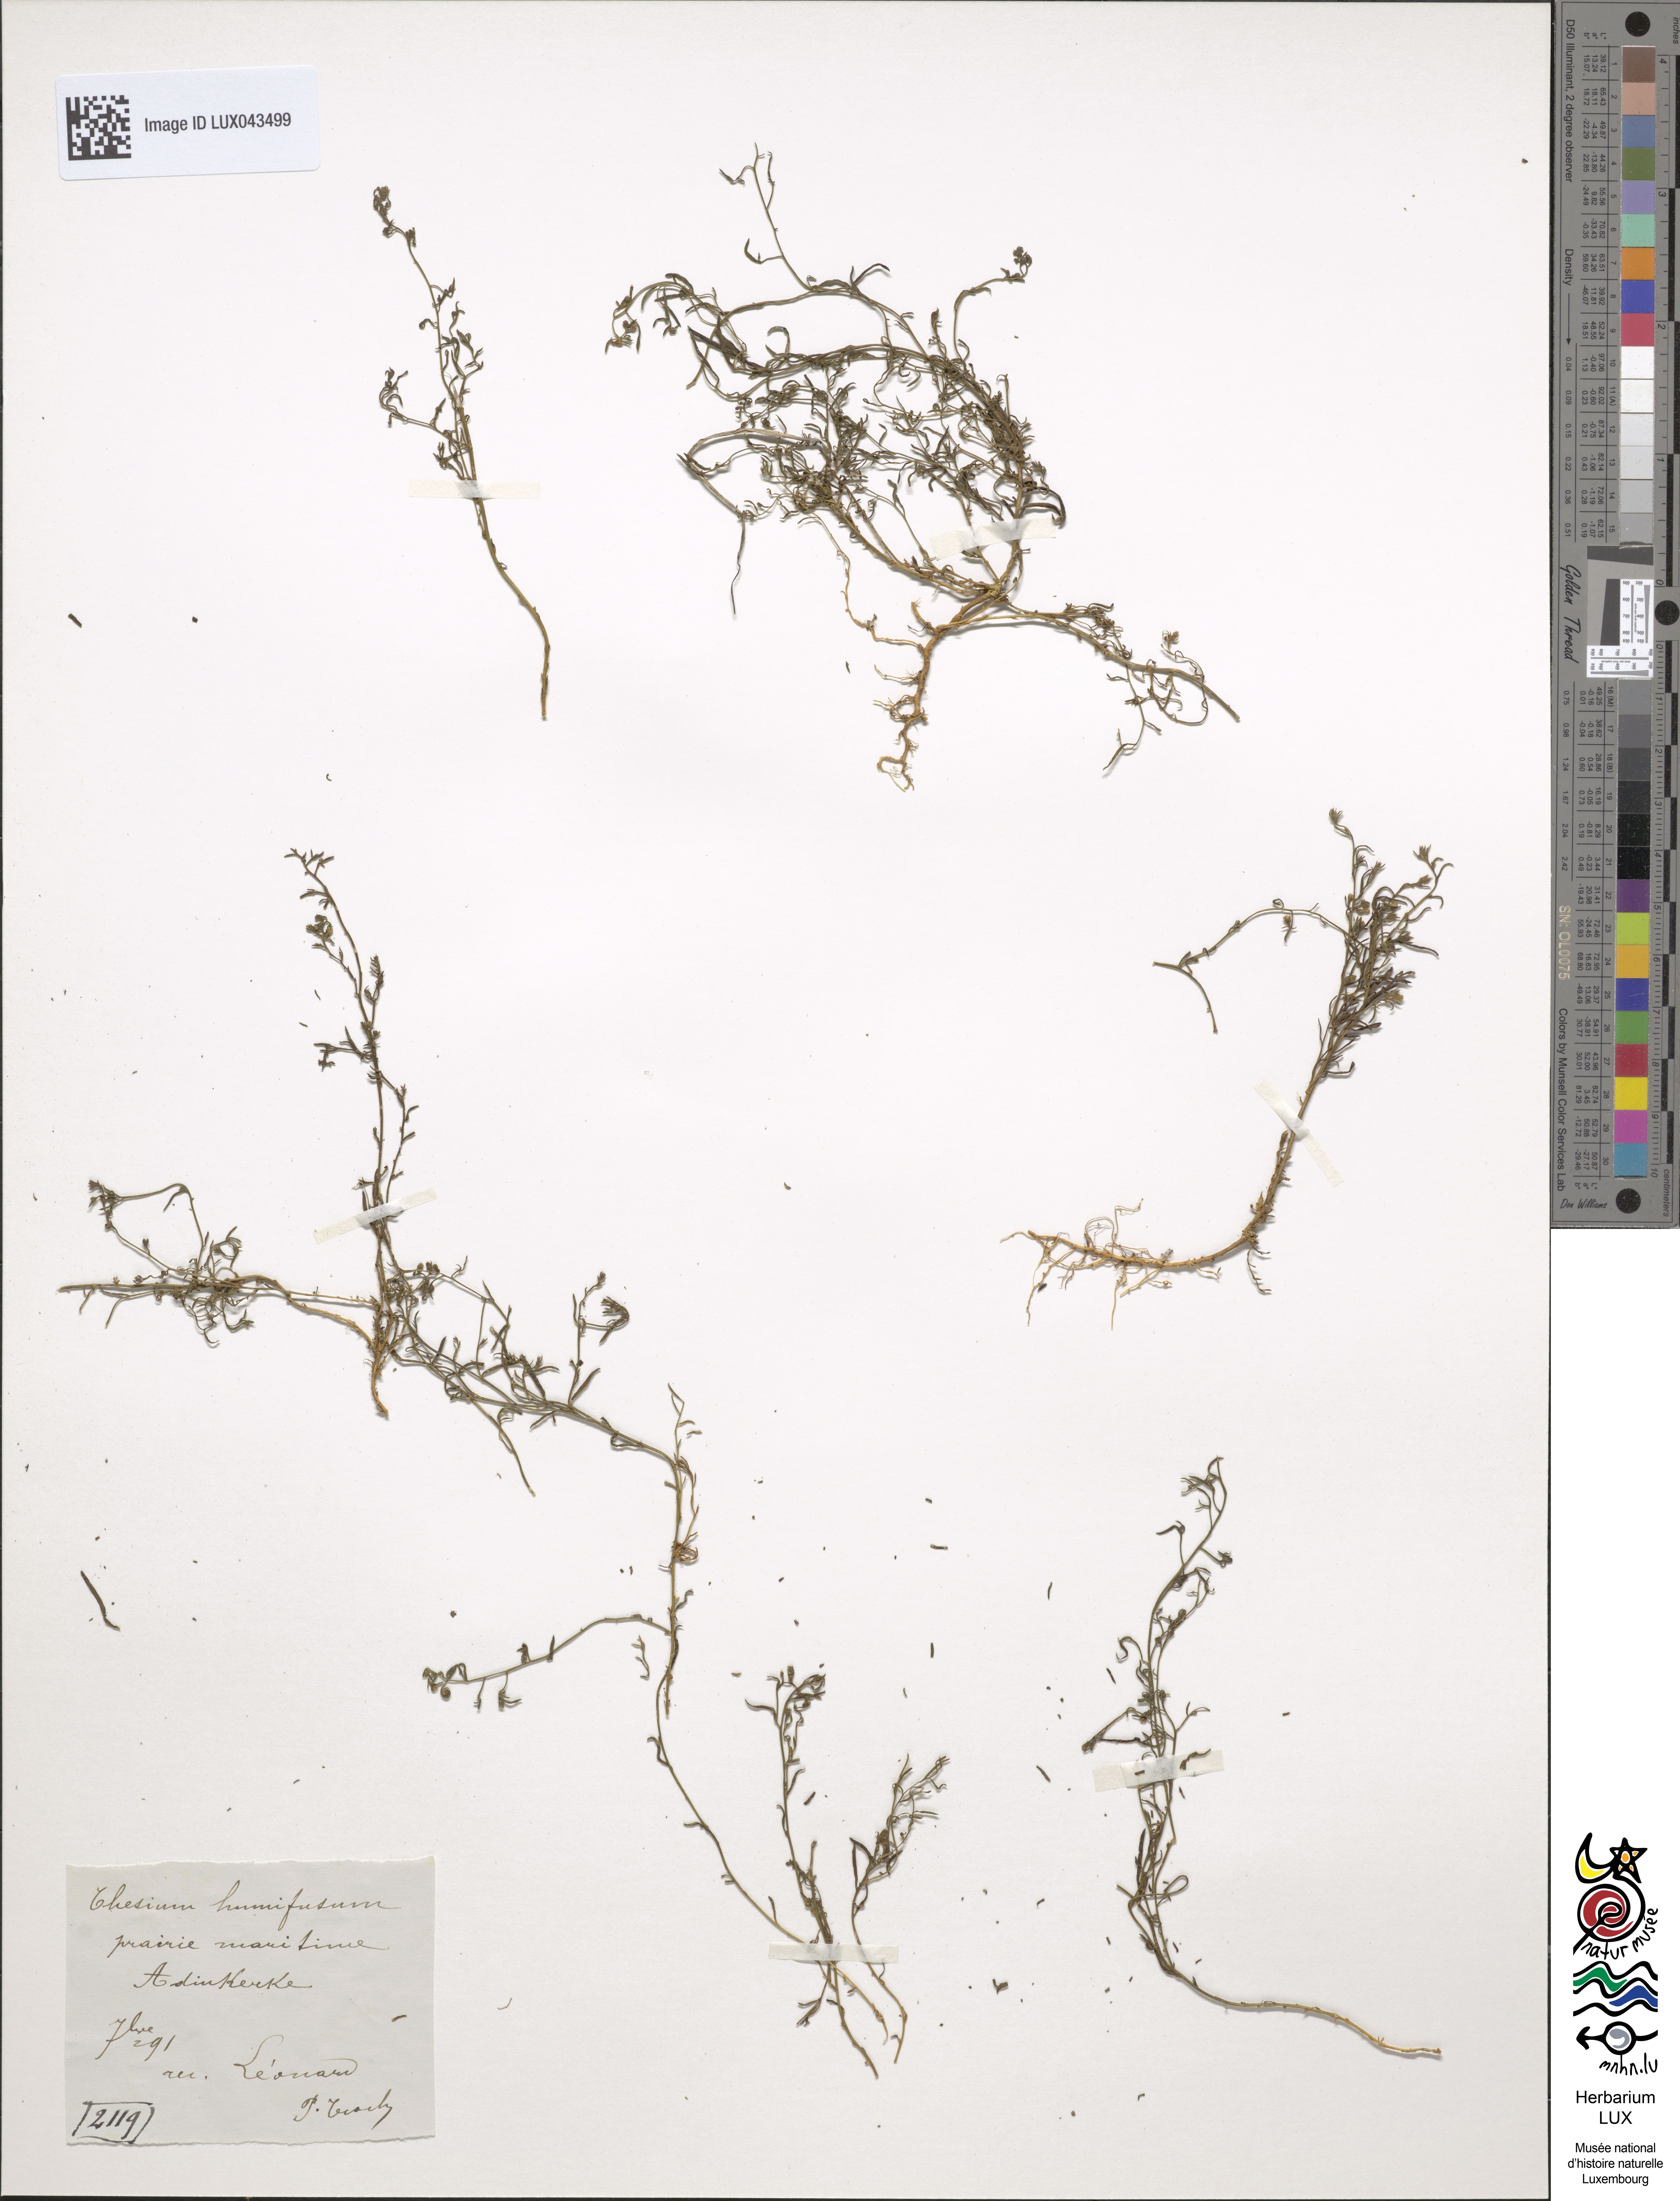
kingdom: Plantae
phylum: Tracheophyta
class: Magnoliopsida
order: Santalales
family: Thesiaceae
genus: Thesium
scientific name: Thesium humifusum
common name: Bastard-toadflax
